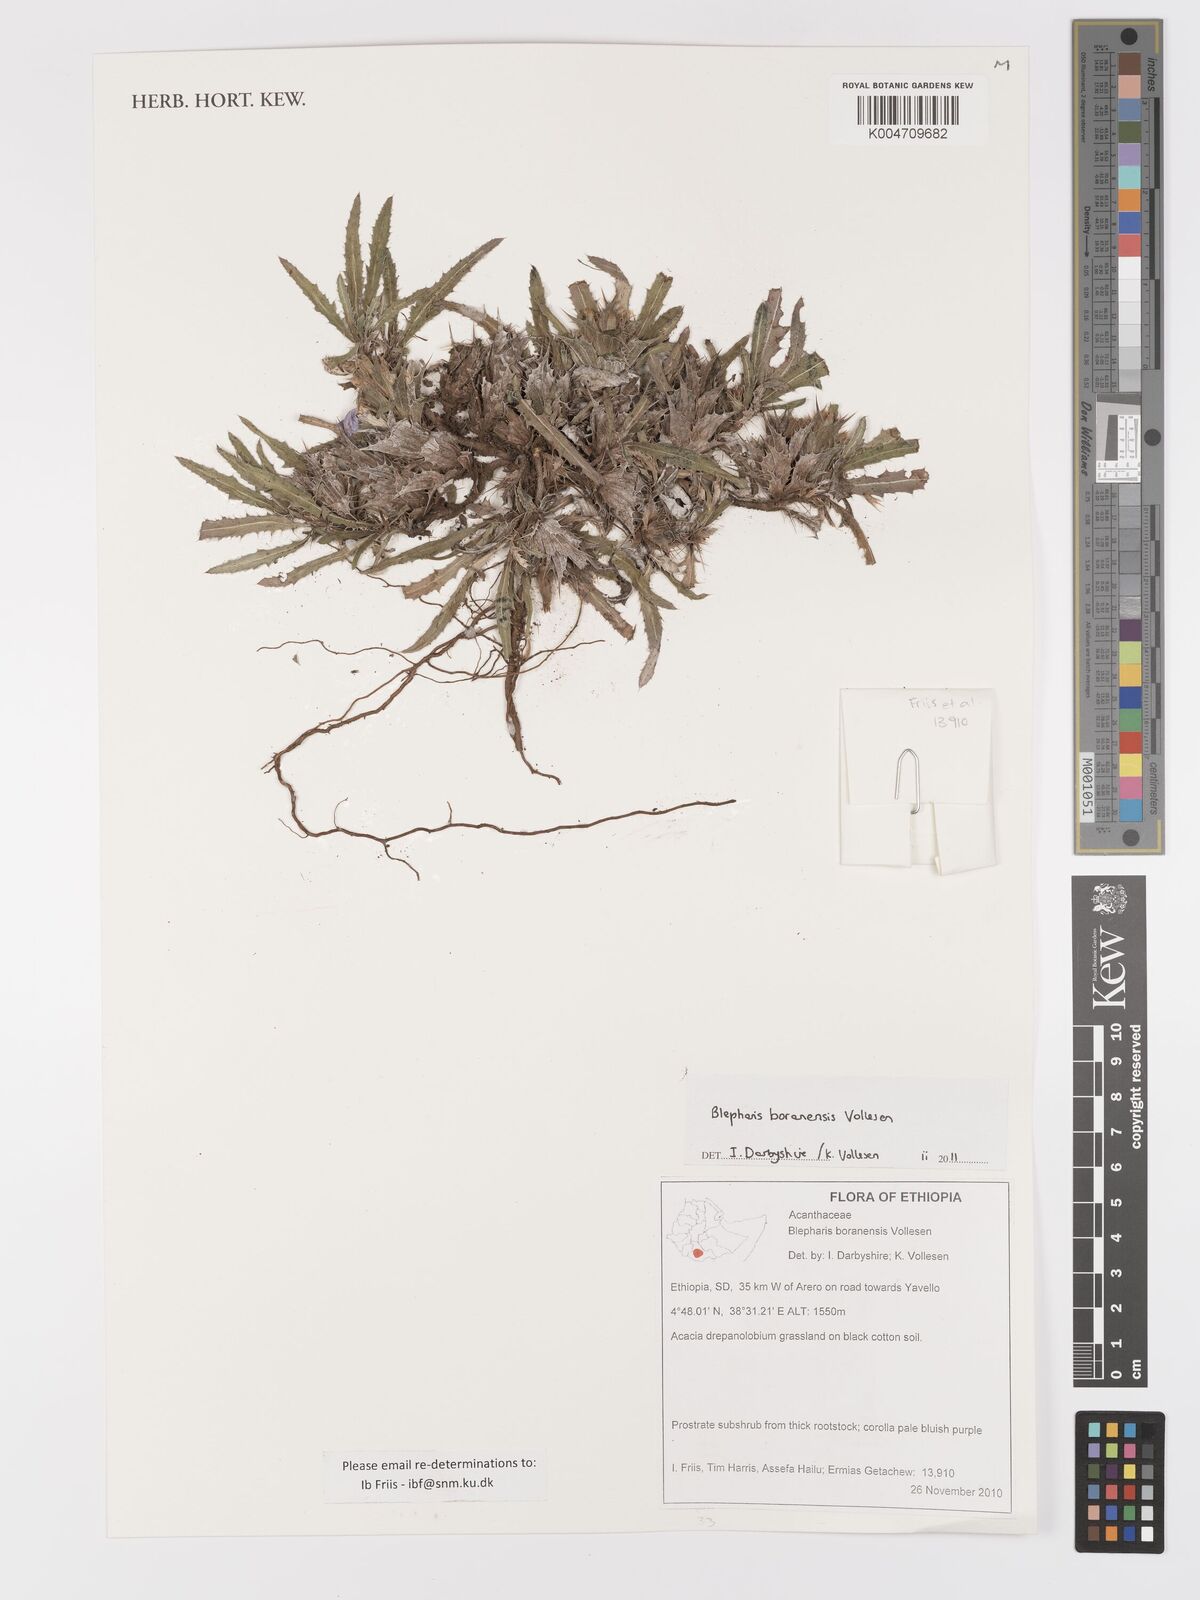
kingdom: Plantae
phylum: Tracheophyta
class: Magnoliopsida
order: Lamiales
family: Acanthaceae
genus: Blepharis
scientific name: Blepharis boranensis
